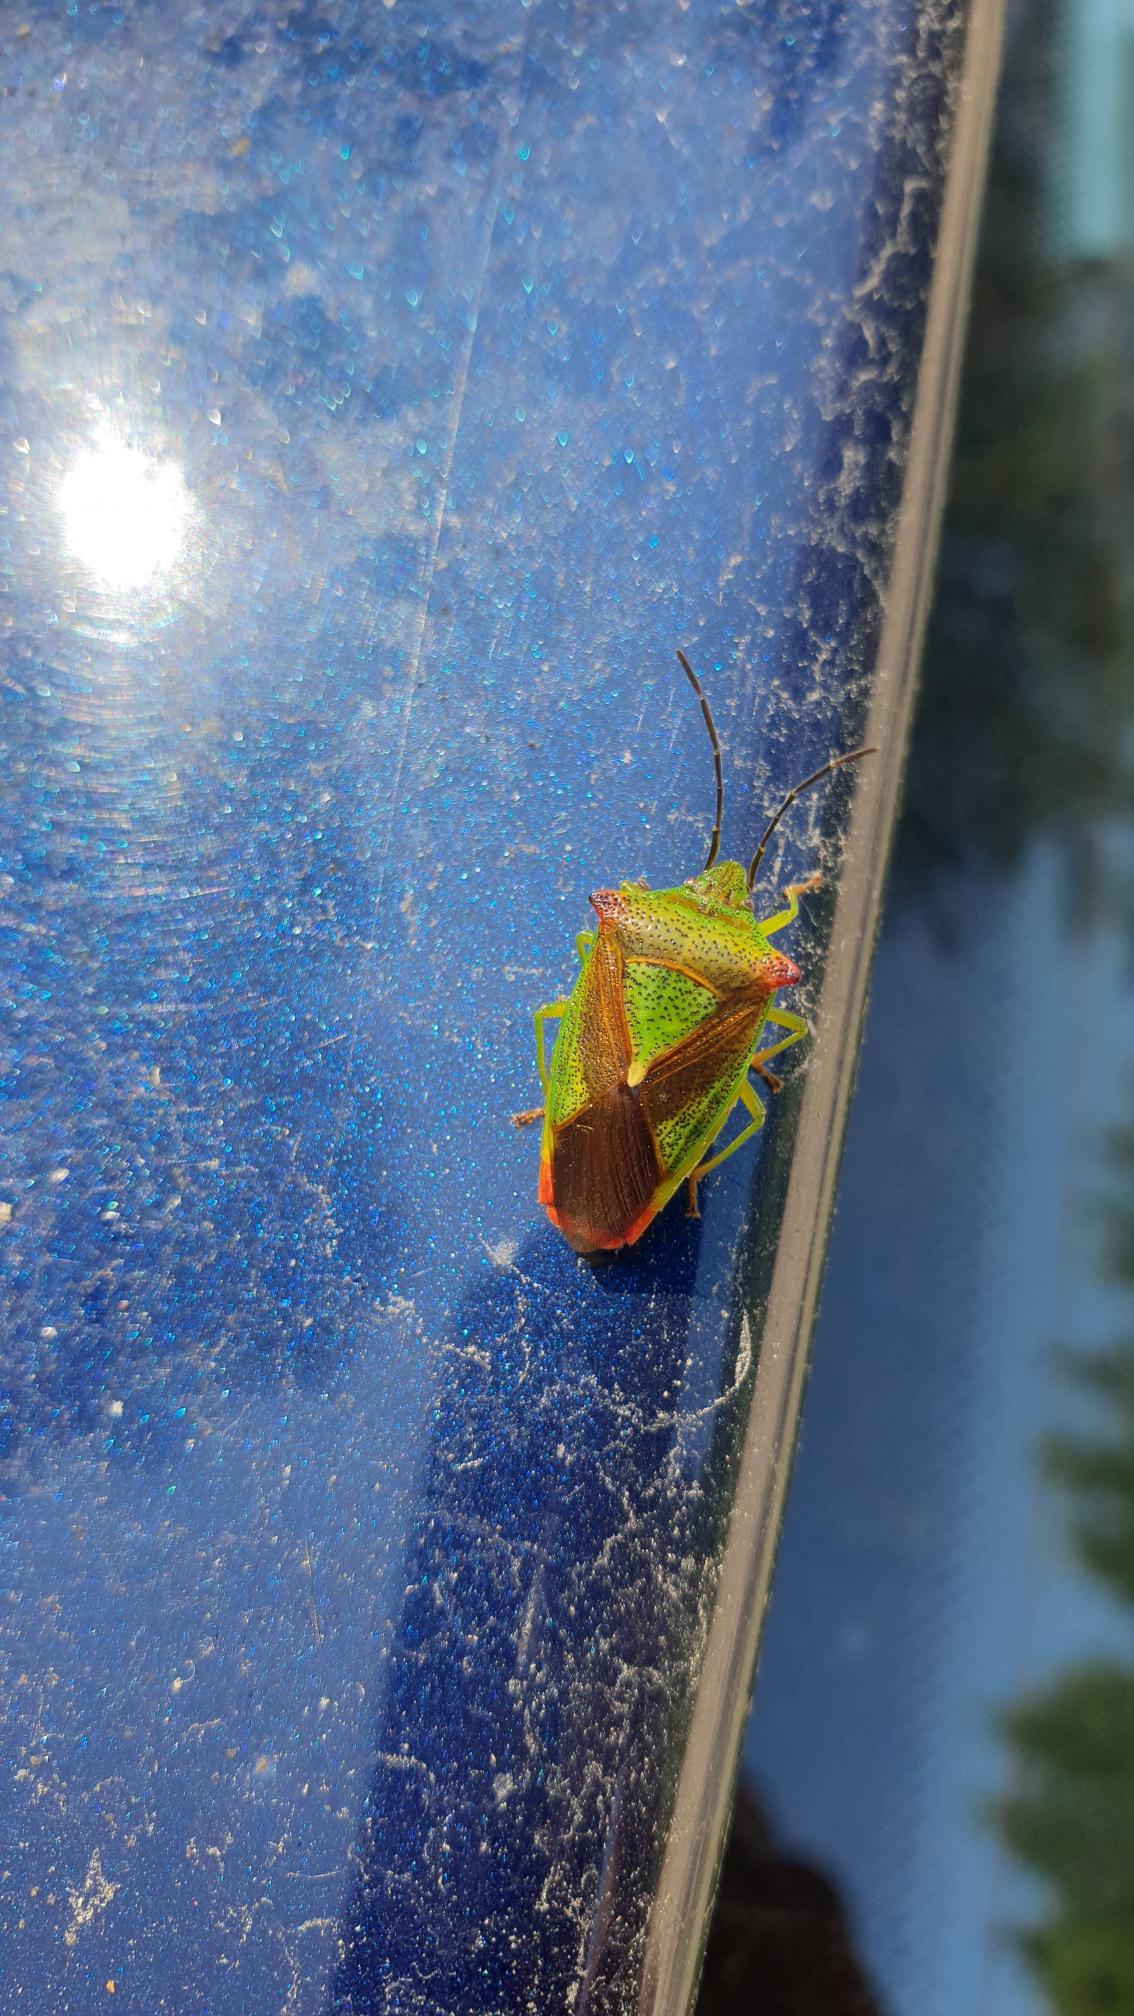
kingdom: Animalia
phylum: Arthropoda
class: Insecta
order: Hemiptera
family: Acanthosomatidae
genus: Acanthosoma
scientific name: Acanthosoma haemorrhoidale
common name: Stor løvtæge
